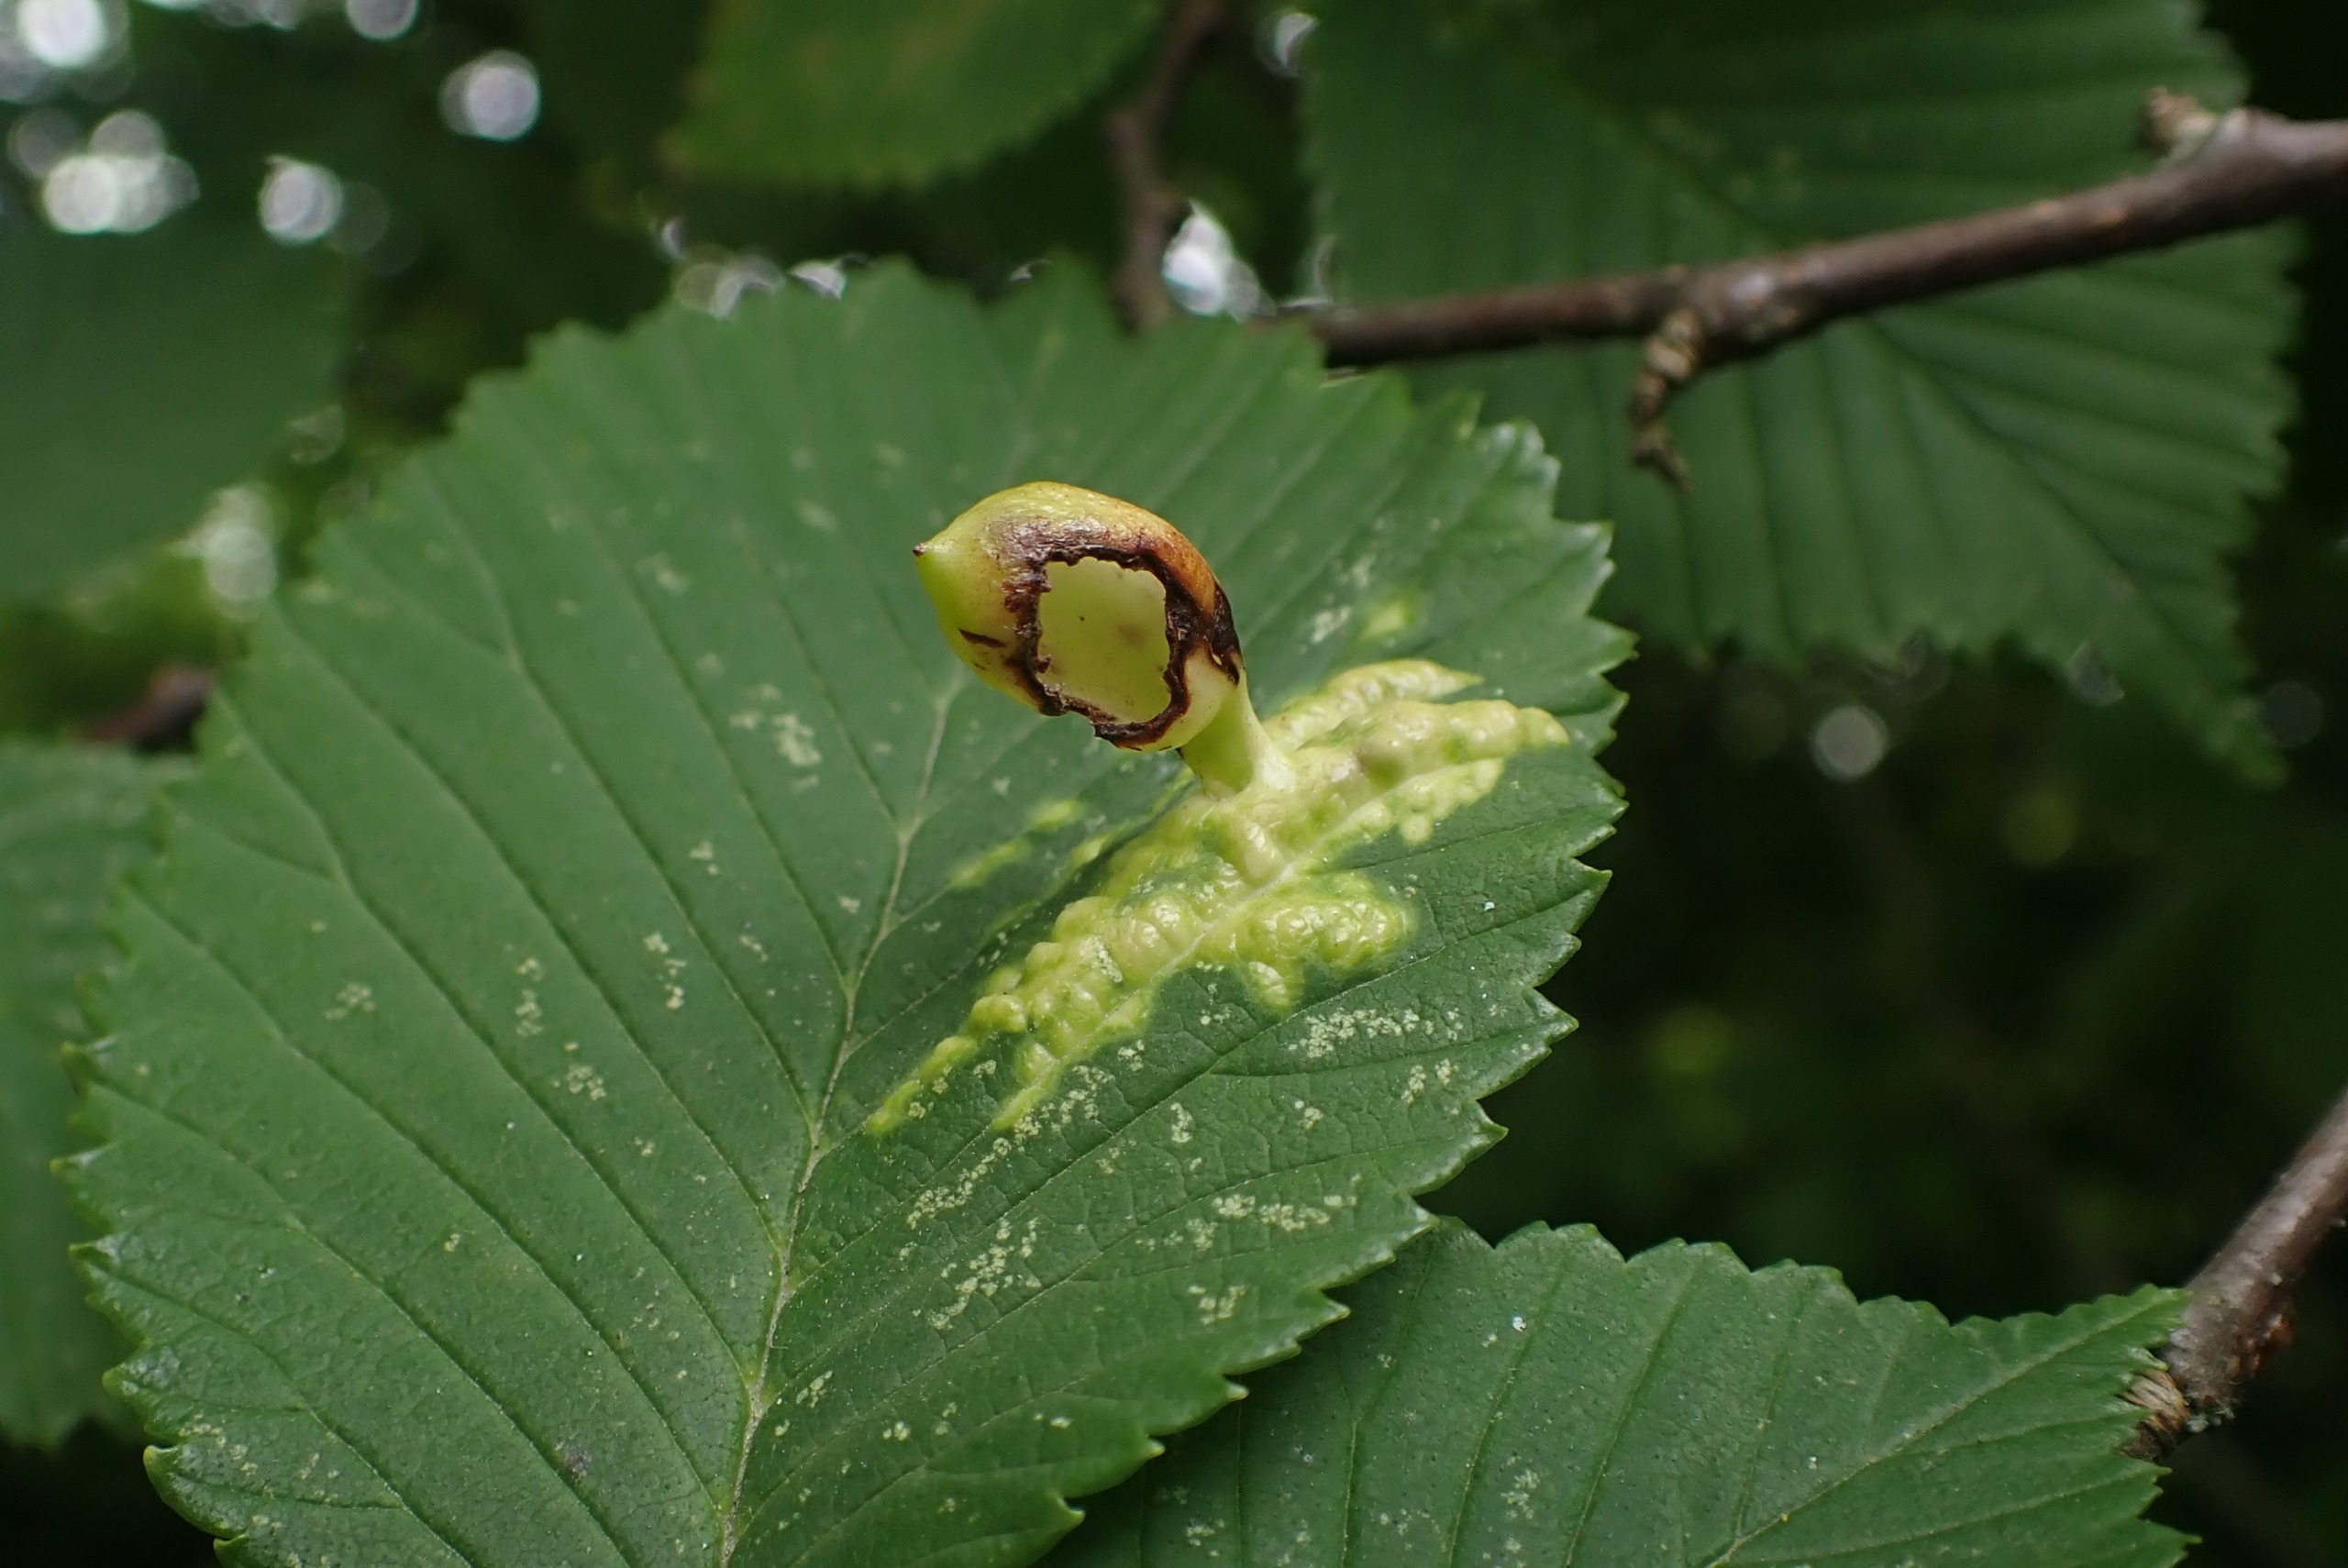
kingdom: Animalia
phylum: Arthropoda
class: Insecta
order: Hemiptera
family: Aphididae
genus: Tetraneura
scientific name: Tetraneura ulmi
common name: Elmegallelus
